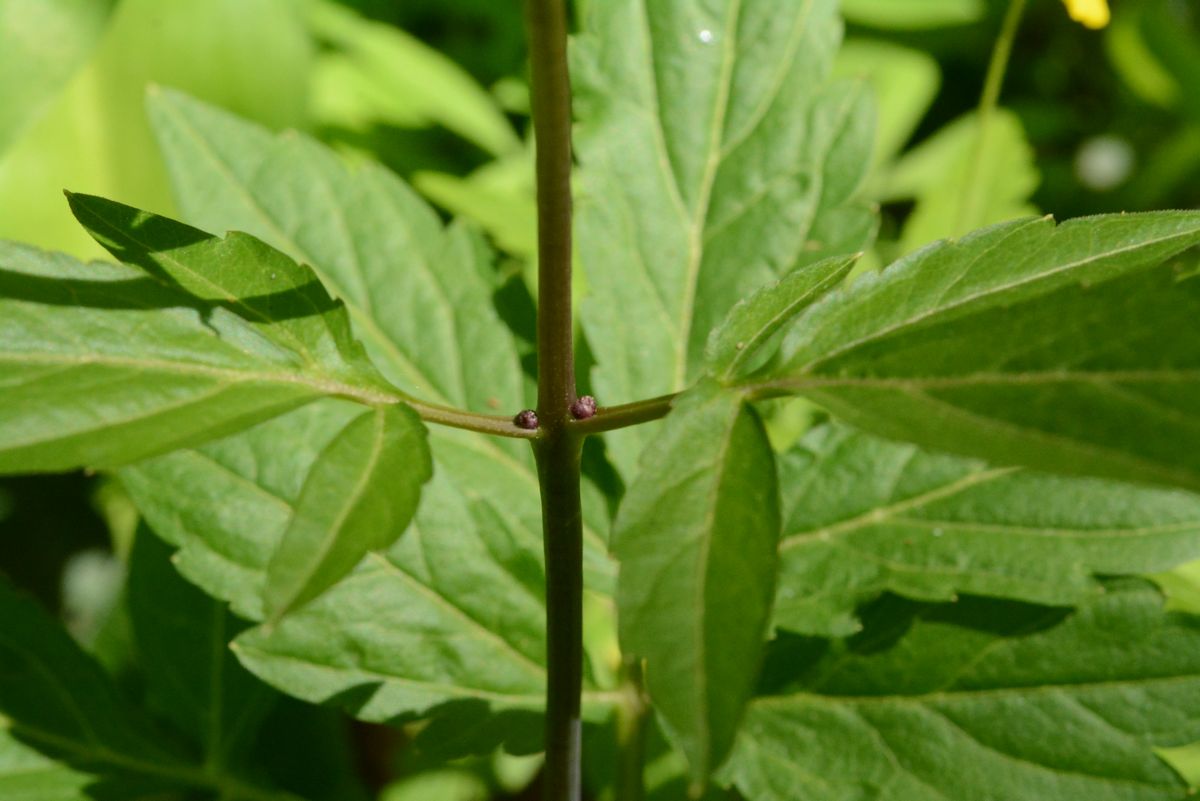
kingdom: Plantae
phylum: Tracheophyta
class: Magnoliopsida
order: Brassicales
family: Brassicaceae
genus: Cardamine
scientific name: Cardamine bulbifera
